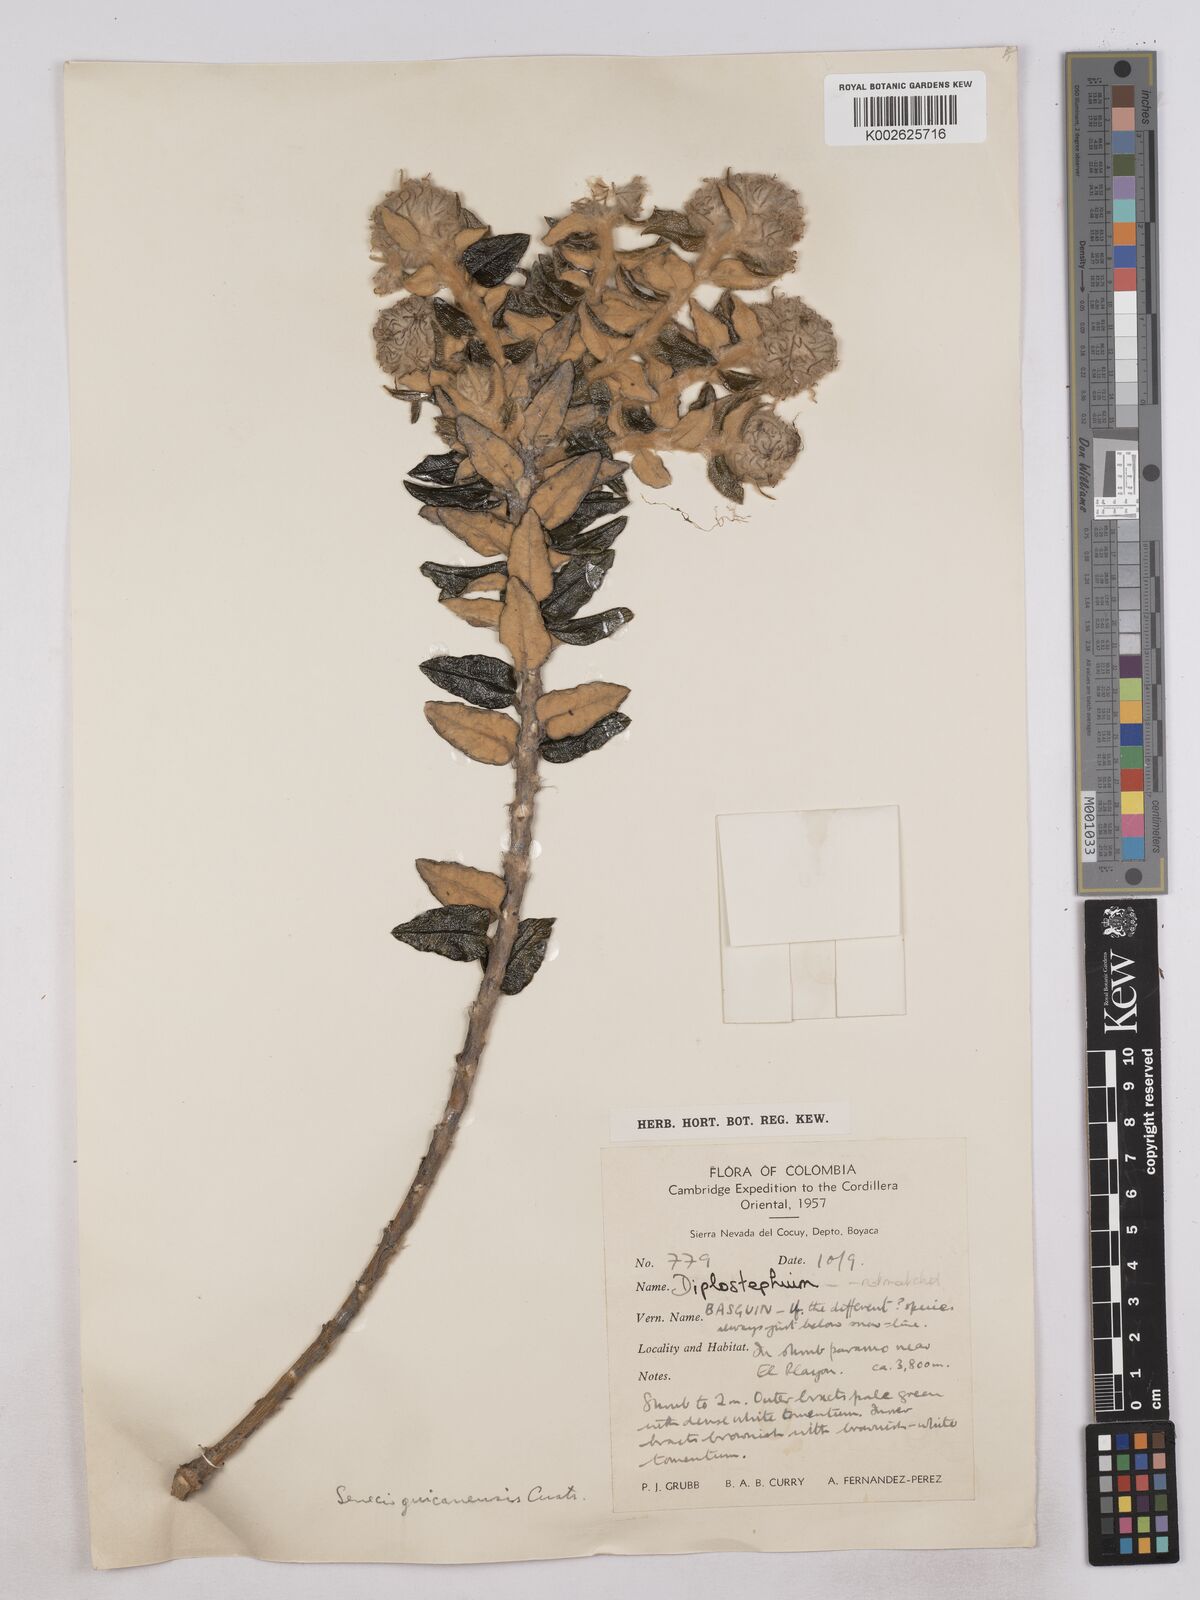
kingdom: Plantae
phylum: Tracheophyta
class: Magnoliopsida
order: Asterales
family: Asteraceae
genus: Monticalia
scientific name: Monticalia guicanensis
